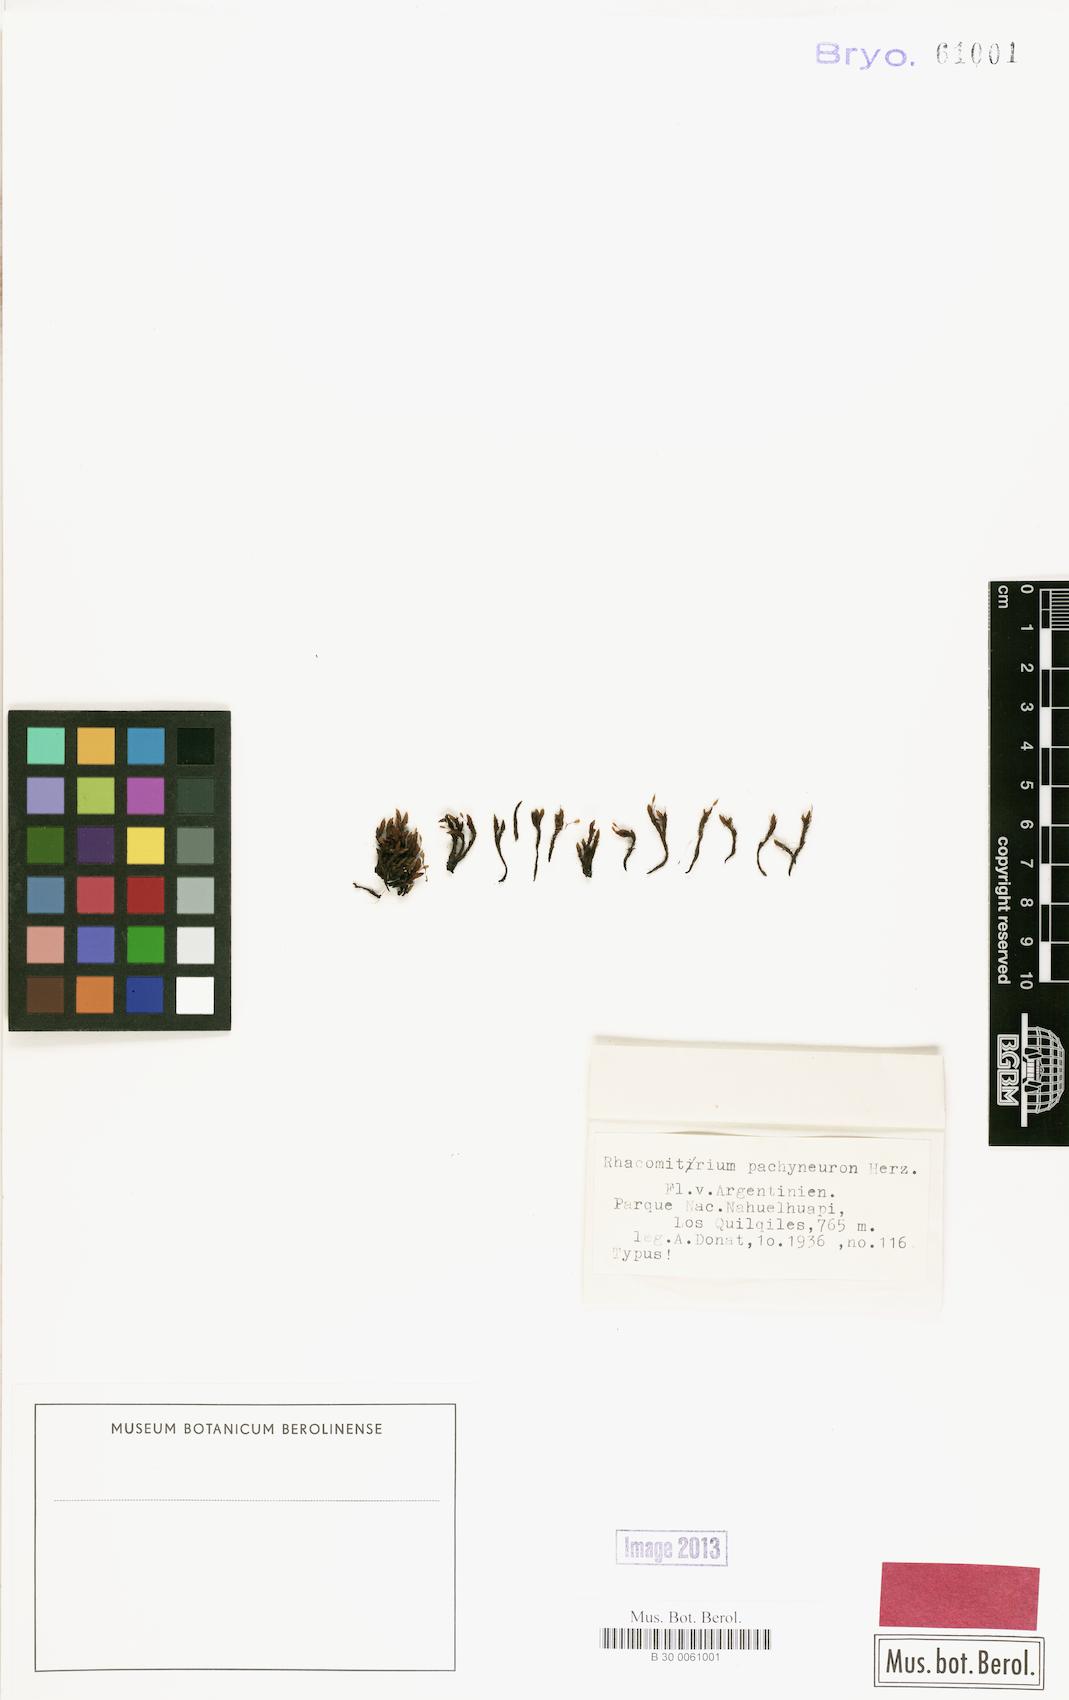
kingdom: Plantae
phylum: Bryophyta
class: Bryopsida
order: Grimmiales
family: Grimmiaceae
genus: Bucklandiella
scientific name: Bucklandiella lamprocarpa
